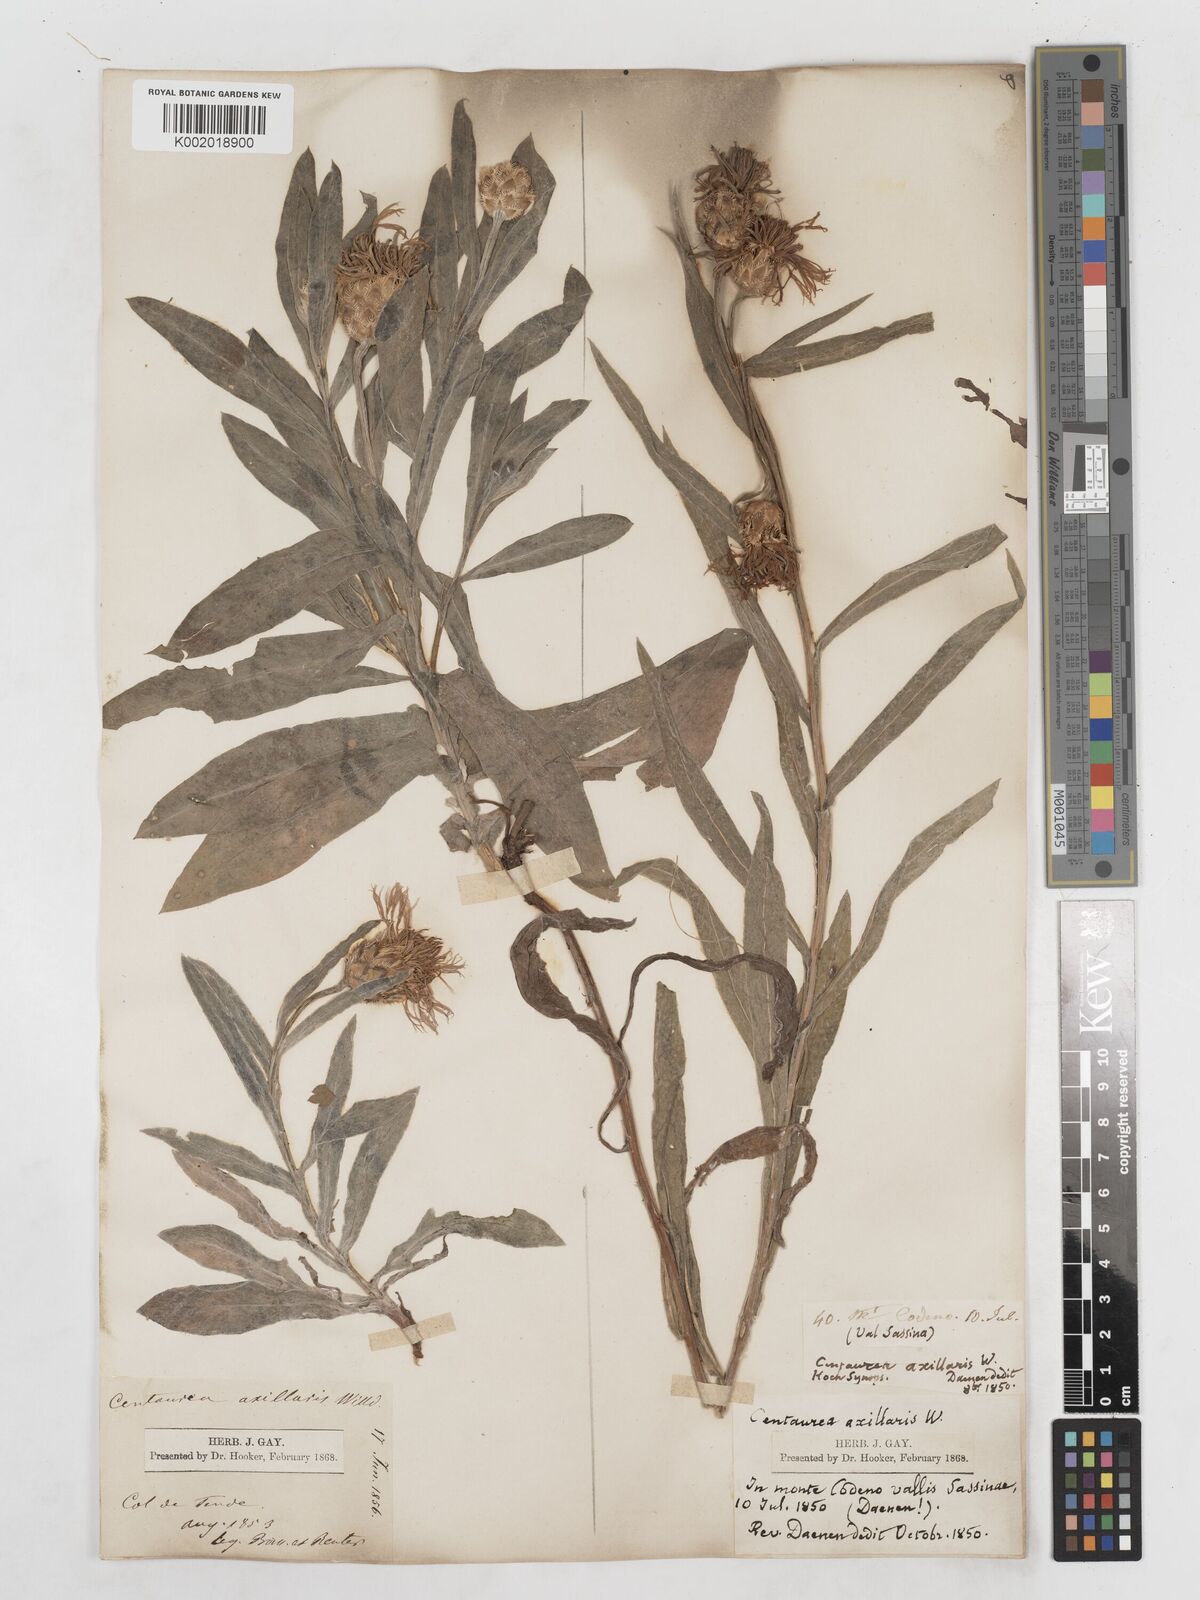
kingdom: Plantae
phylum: Tracheophyta
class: Magnoliopsida
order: Asterales
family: Asteraceae
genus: Centaurea
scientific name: Centaurea triumfettii
